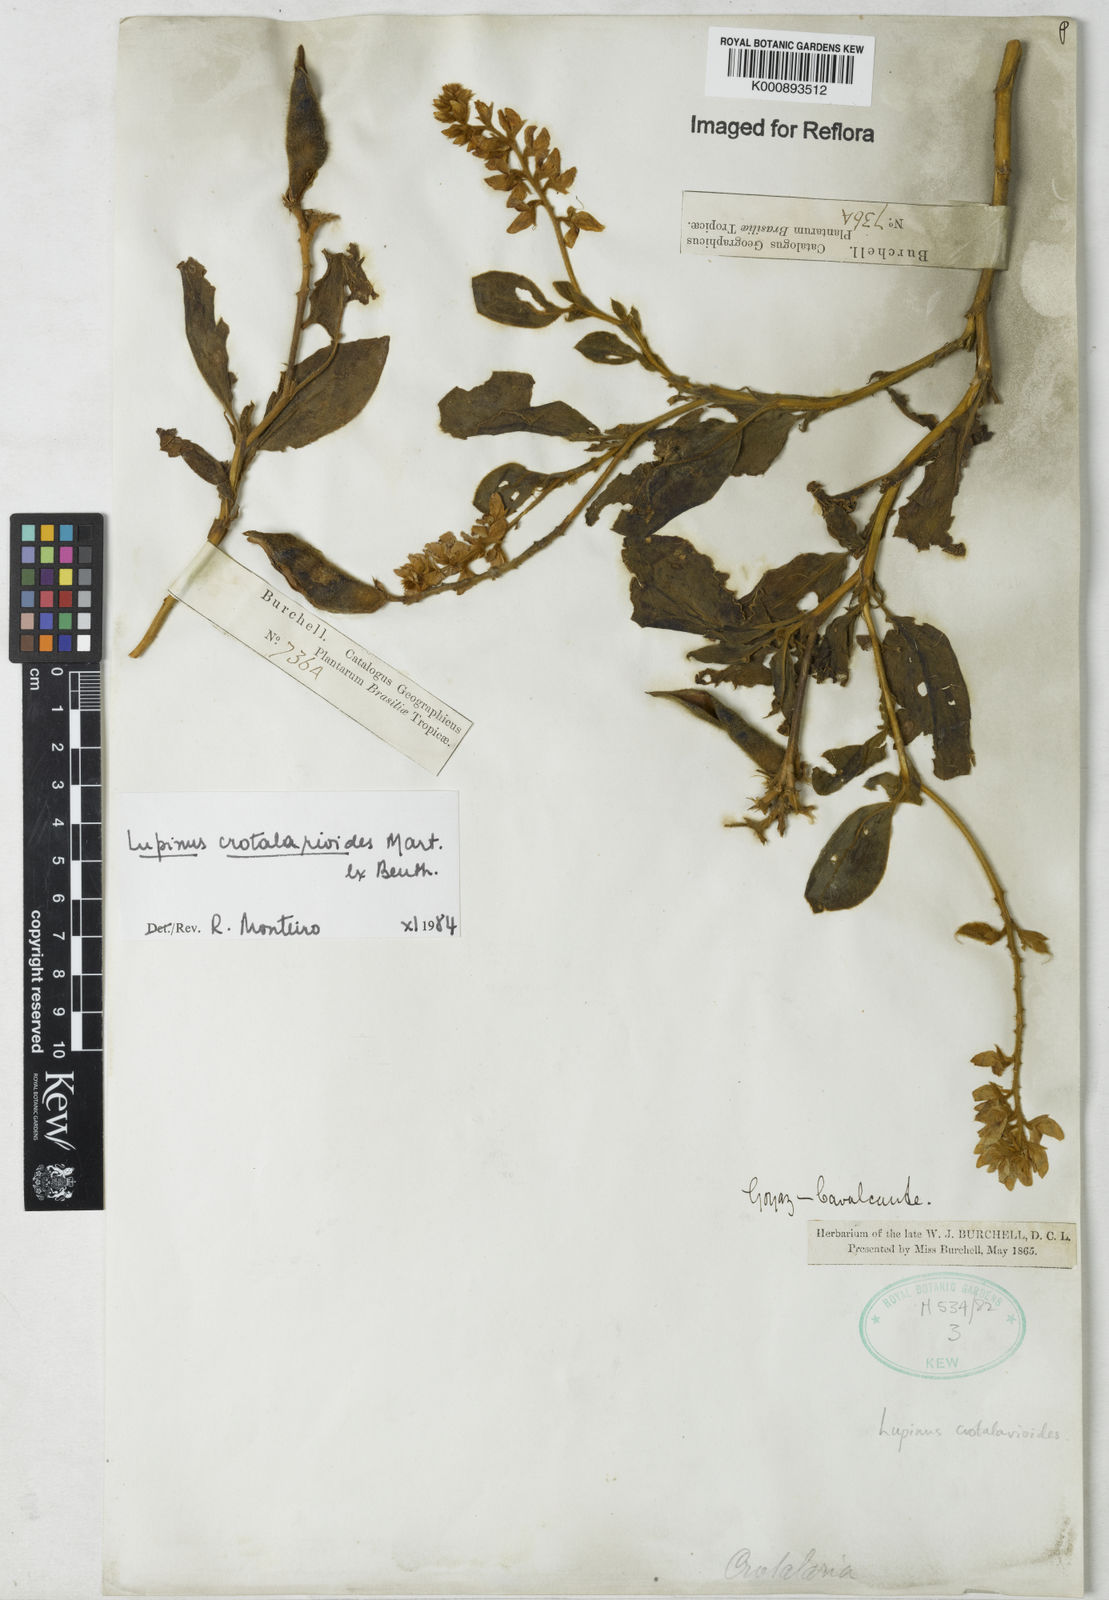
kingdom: Plantae
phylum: Tracheophyta
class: Magnoliopsida
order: Fabales
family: Fabaceae
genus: Lupinus
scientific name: Lupinus crotalarioides
